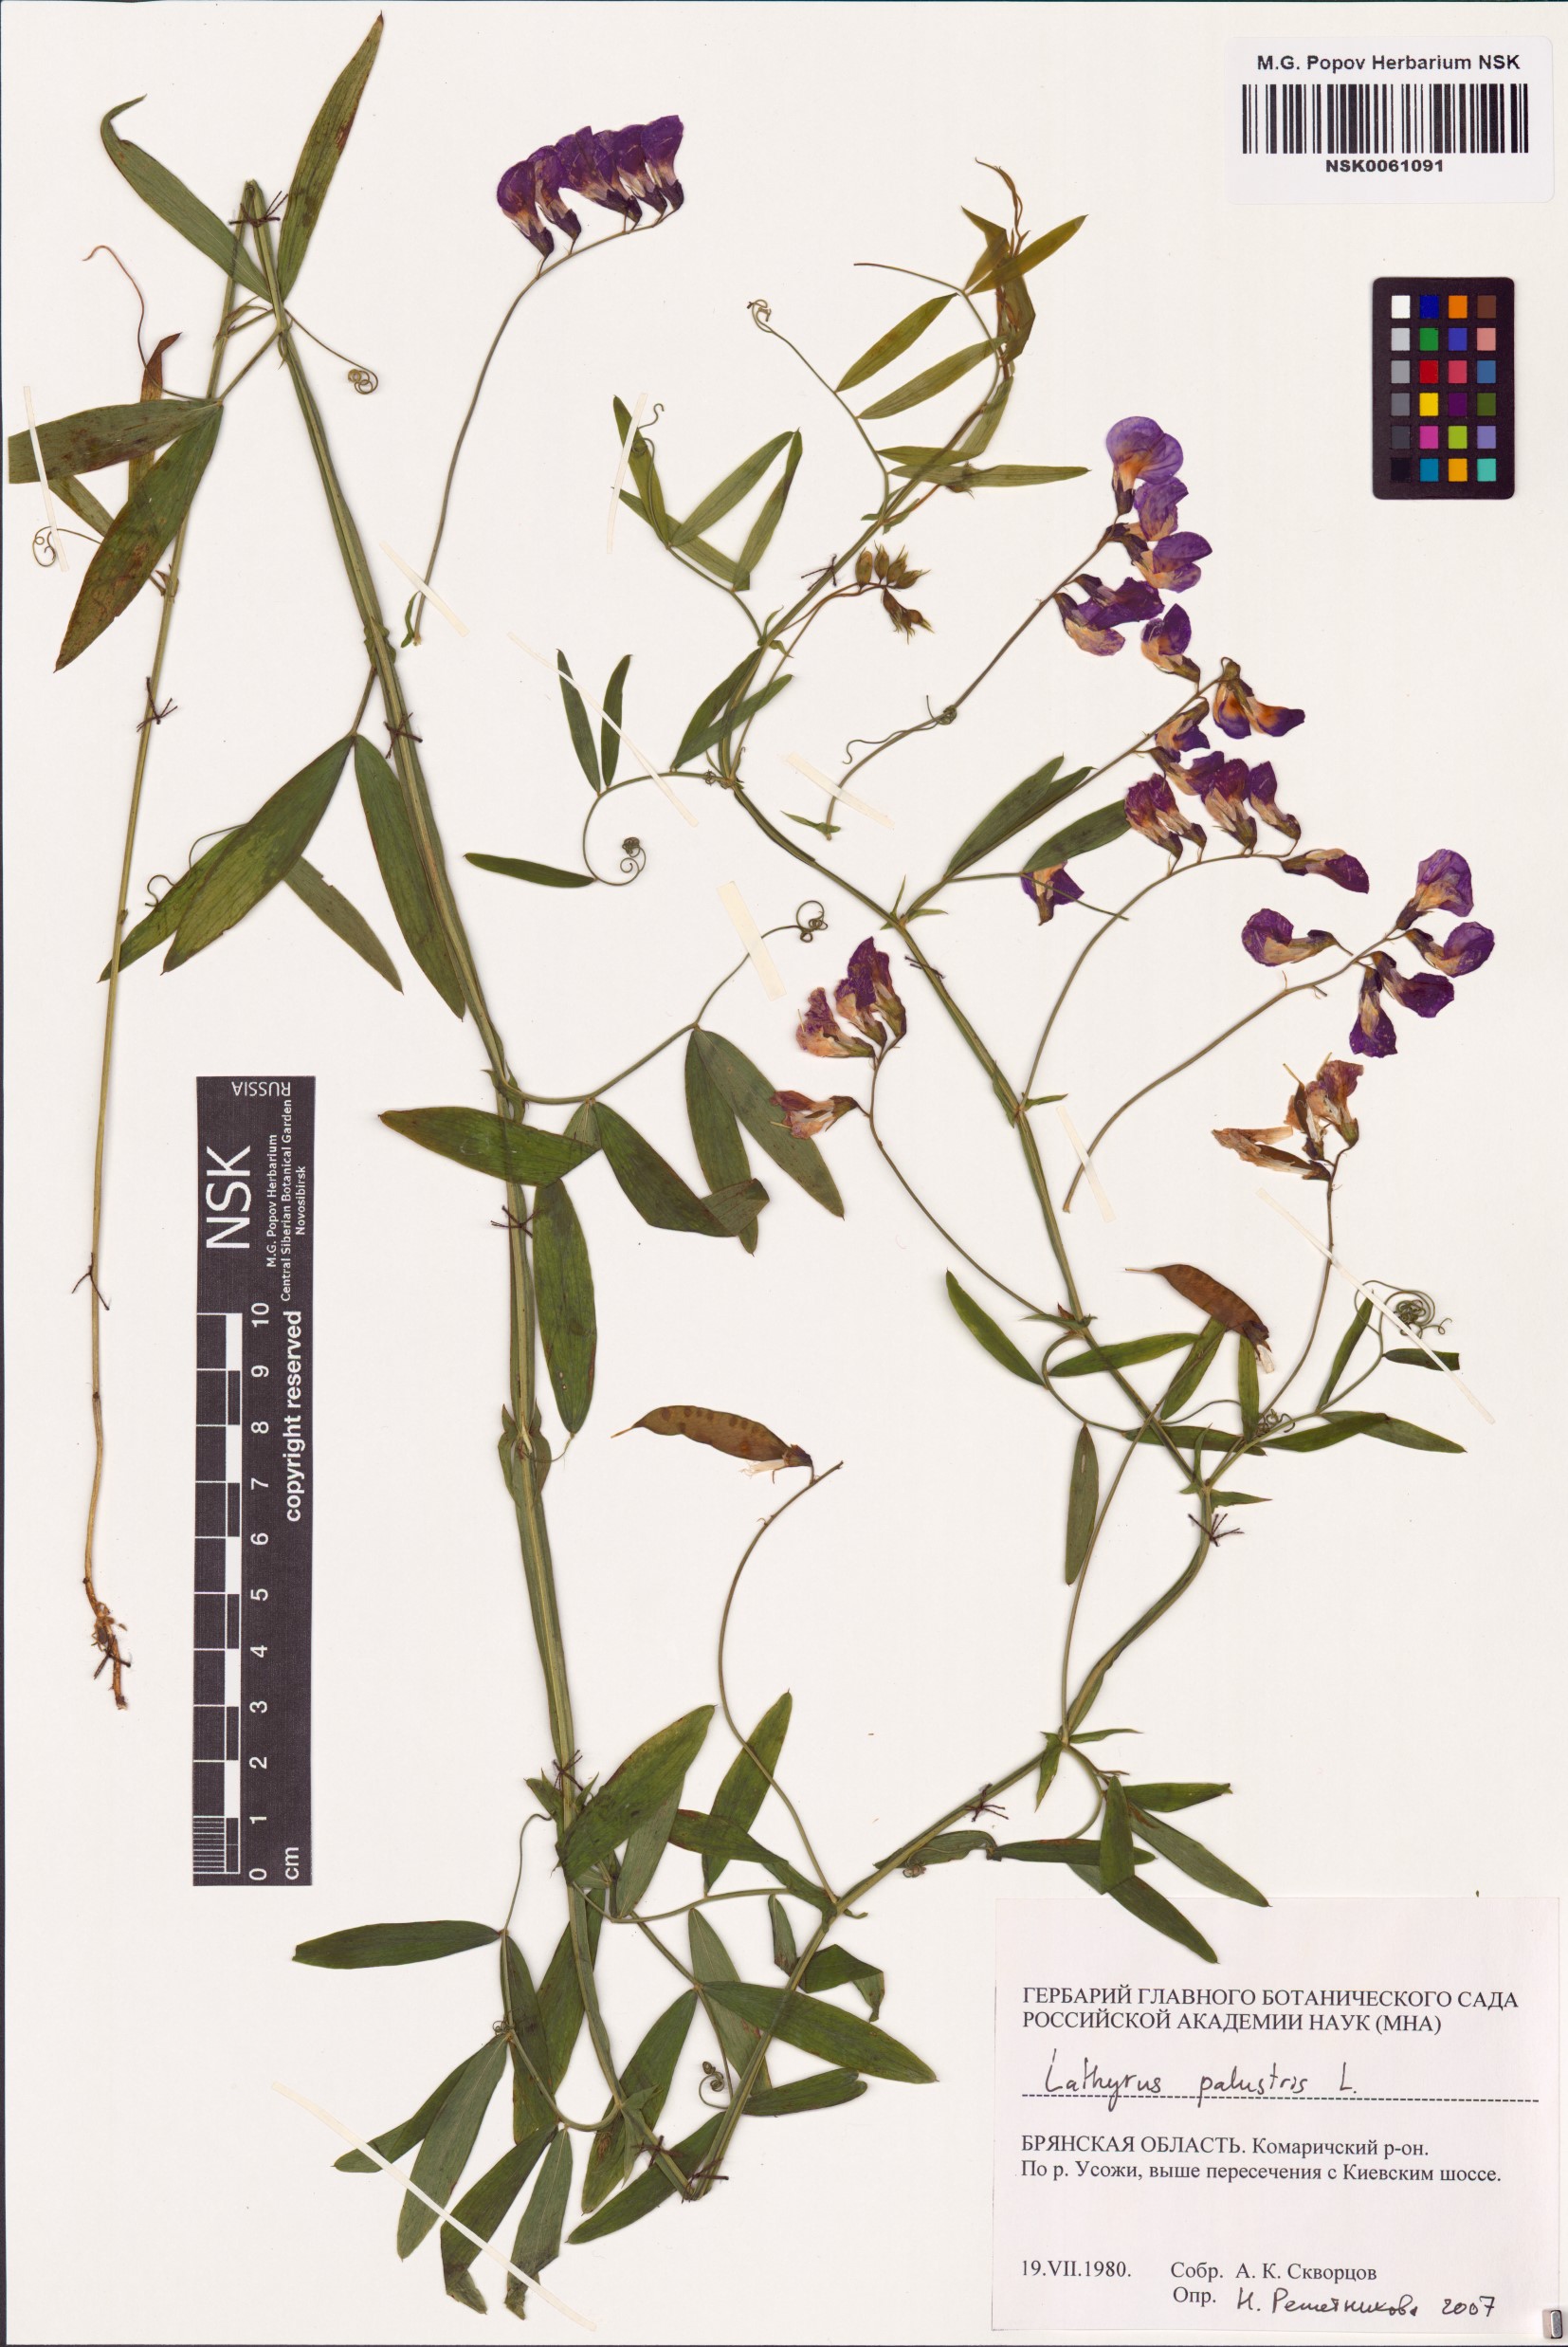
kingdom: Plantae
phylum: Tracheophyta
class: Magnoliopsida
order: Fabales
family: Fabaceae
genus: Lathyrus
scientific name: Lathyrus palustris
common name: Marsh pea
